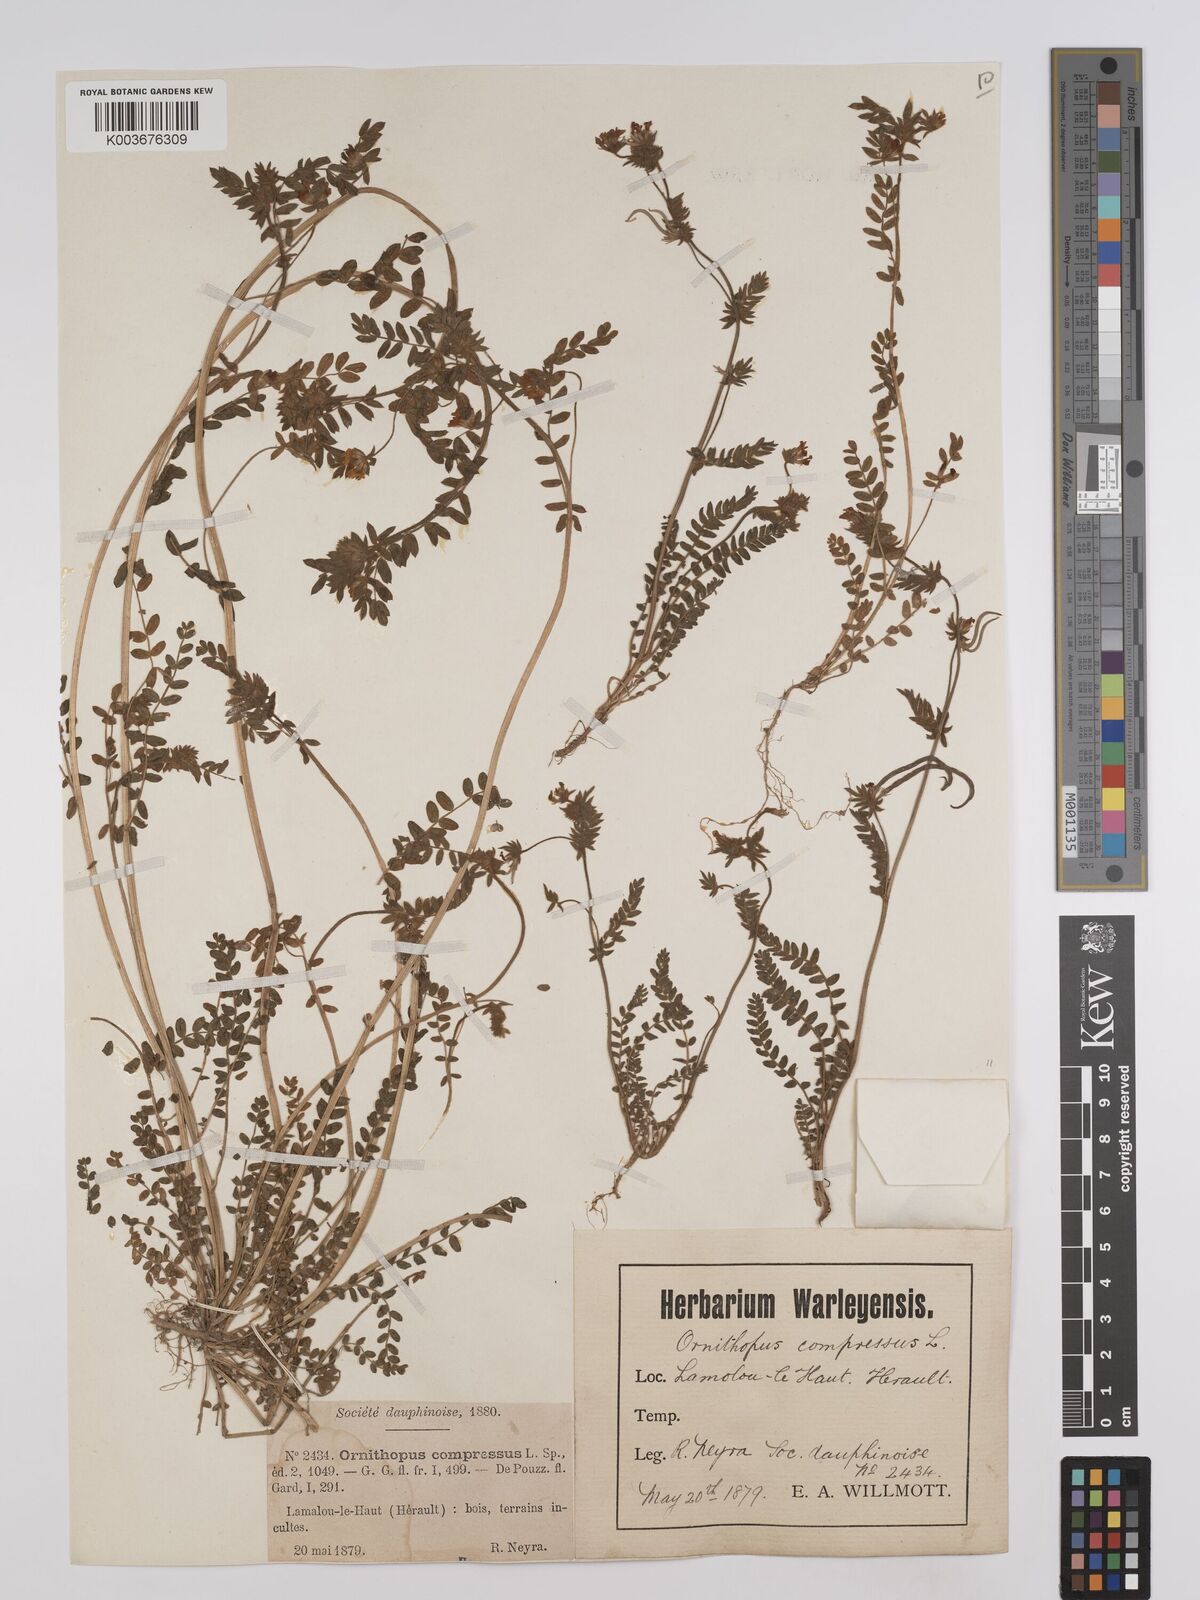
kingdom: Plantae
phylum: Tracheophyta
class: Magnoliopsida
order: Fabales
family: Fabaceae
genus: Ornithopus
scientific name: Ornithopus compressus
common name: Yellow serradella
